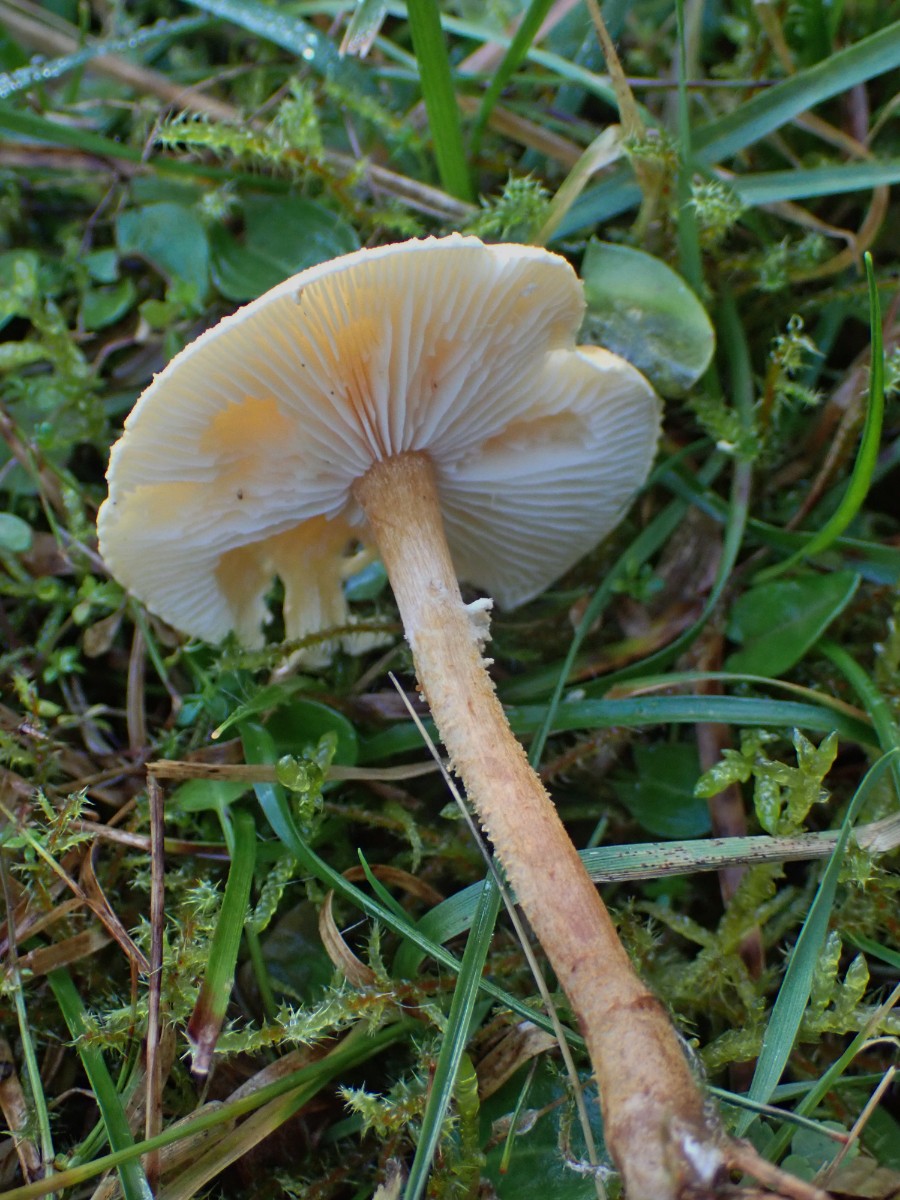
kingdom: Fungi
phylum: Basidiomycota
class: Agaricomycetes
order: Agaricales
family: Tricholomataceae
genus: Cystoderma
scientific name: Cystoderma amianthinum
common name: okkergul grynhat
